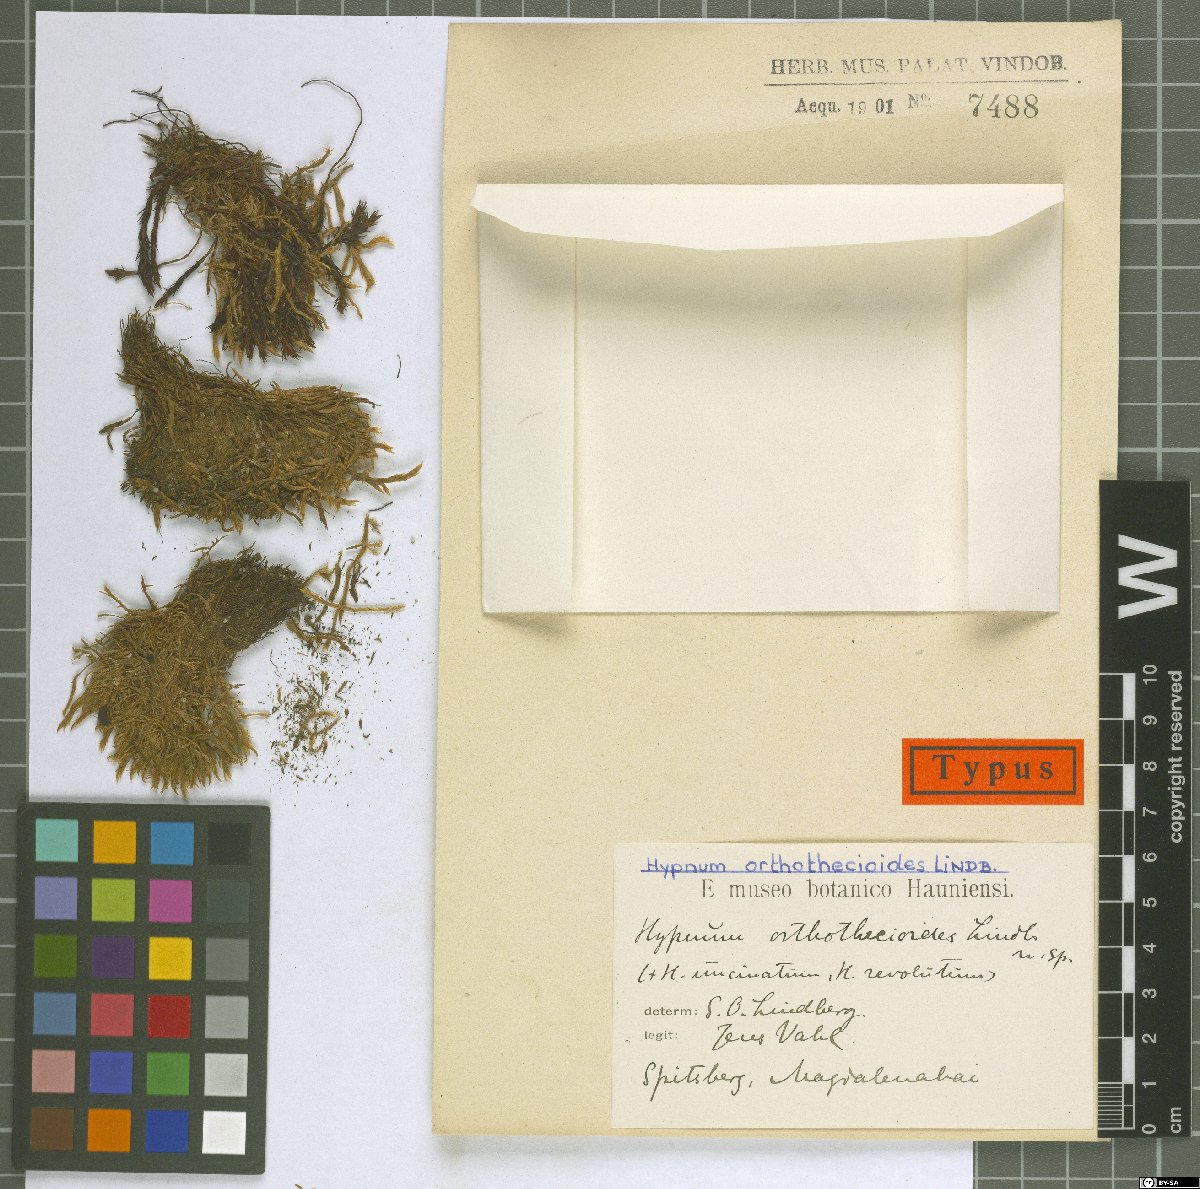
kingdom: Plantae
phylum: Bryophyta
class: Bryopsida
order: Hypnales
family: Scorpidiaceae
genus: Sanionia
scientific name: Sanionia orthothecioides
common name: Coastal hook moss
